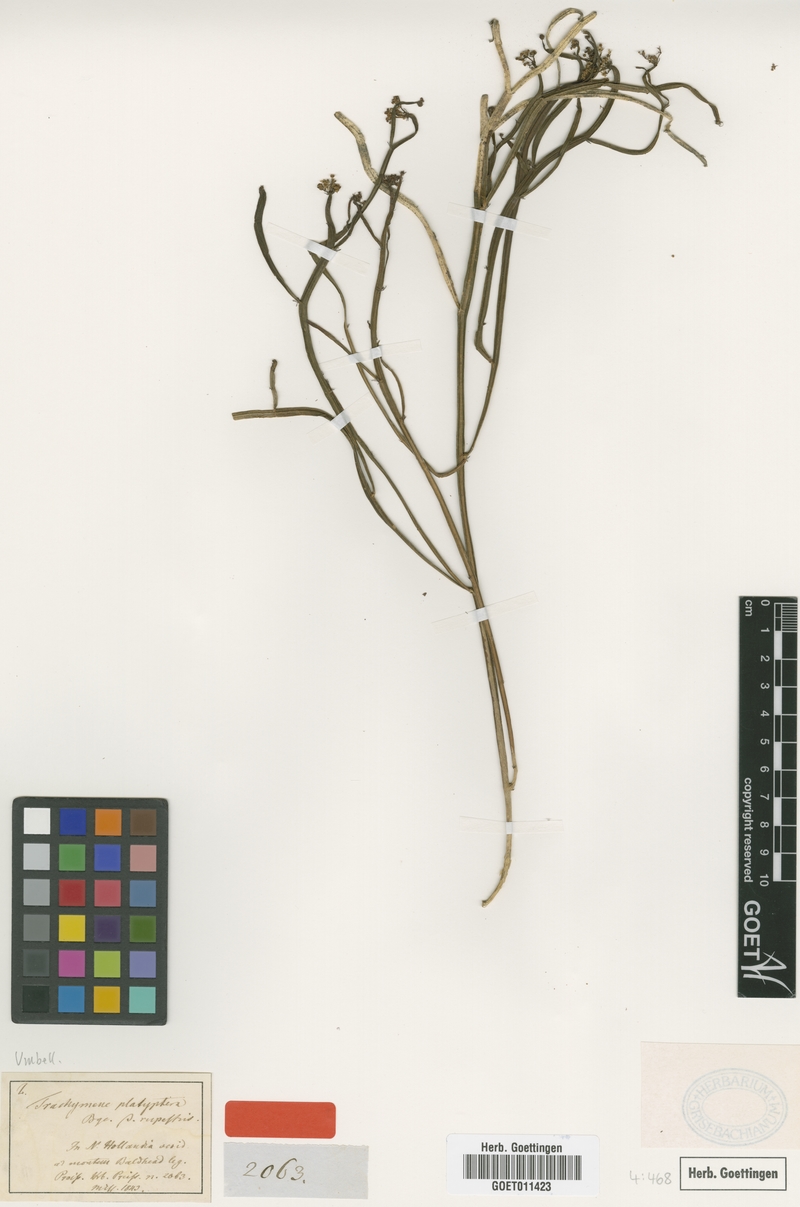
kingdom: Plantae
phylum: Tracheophyta
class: Magnoliopsida
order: Apiales
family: Apiaceae
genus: Platysace
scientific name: Platysace compressa
